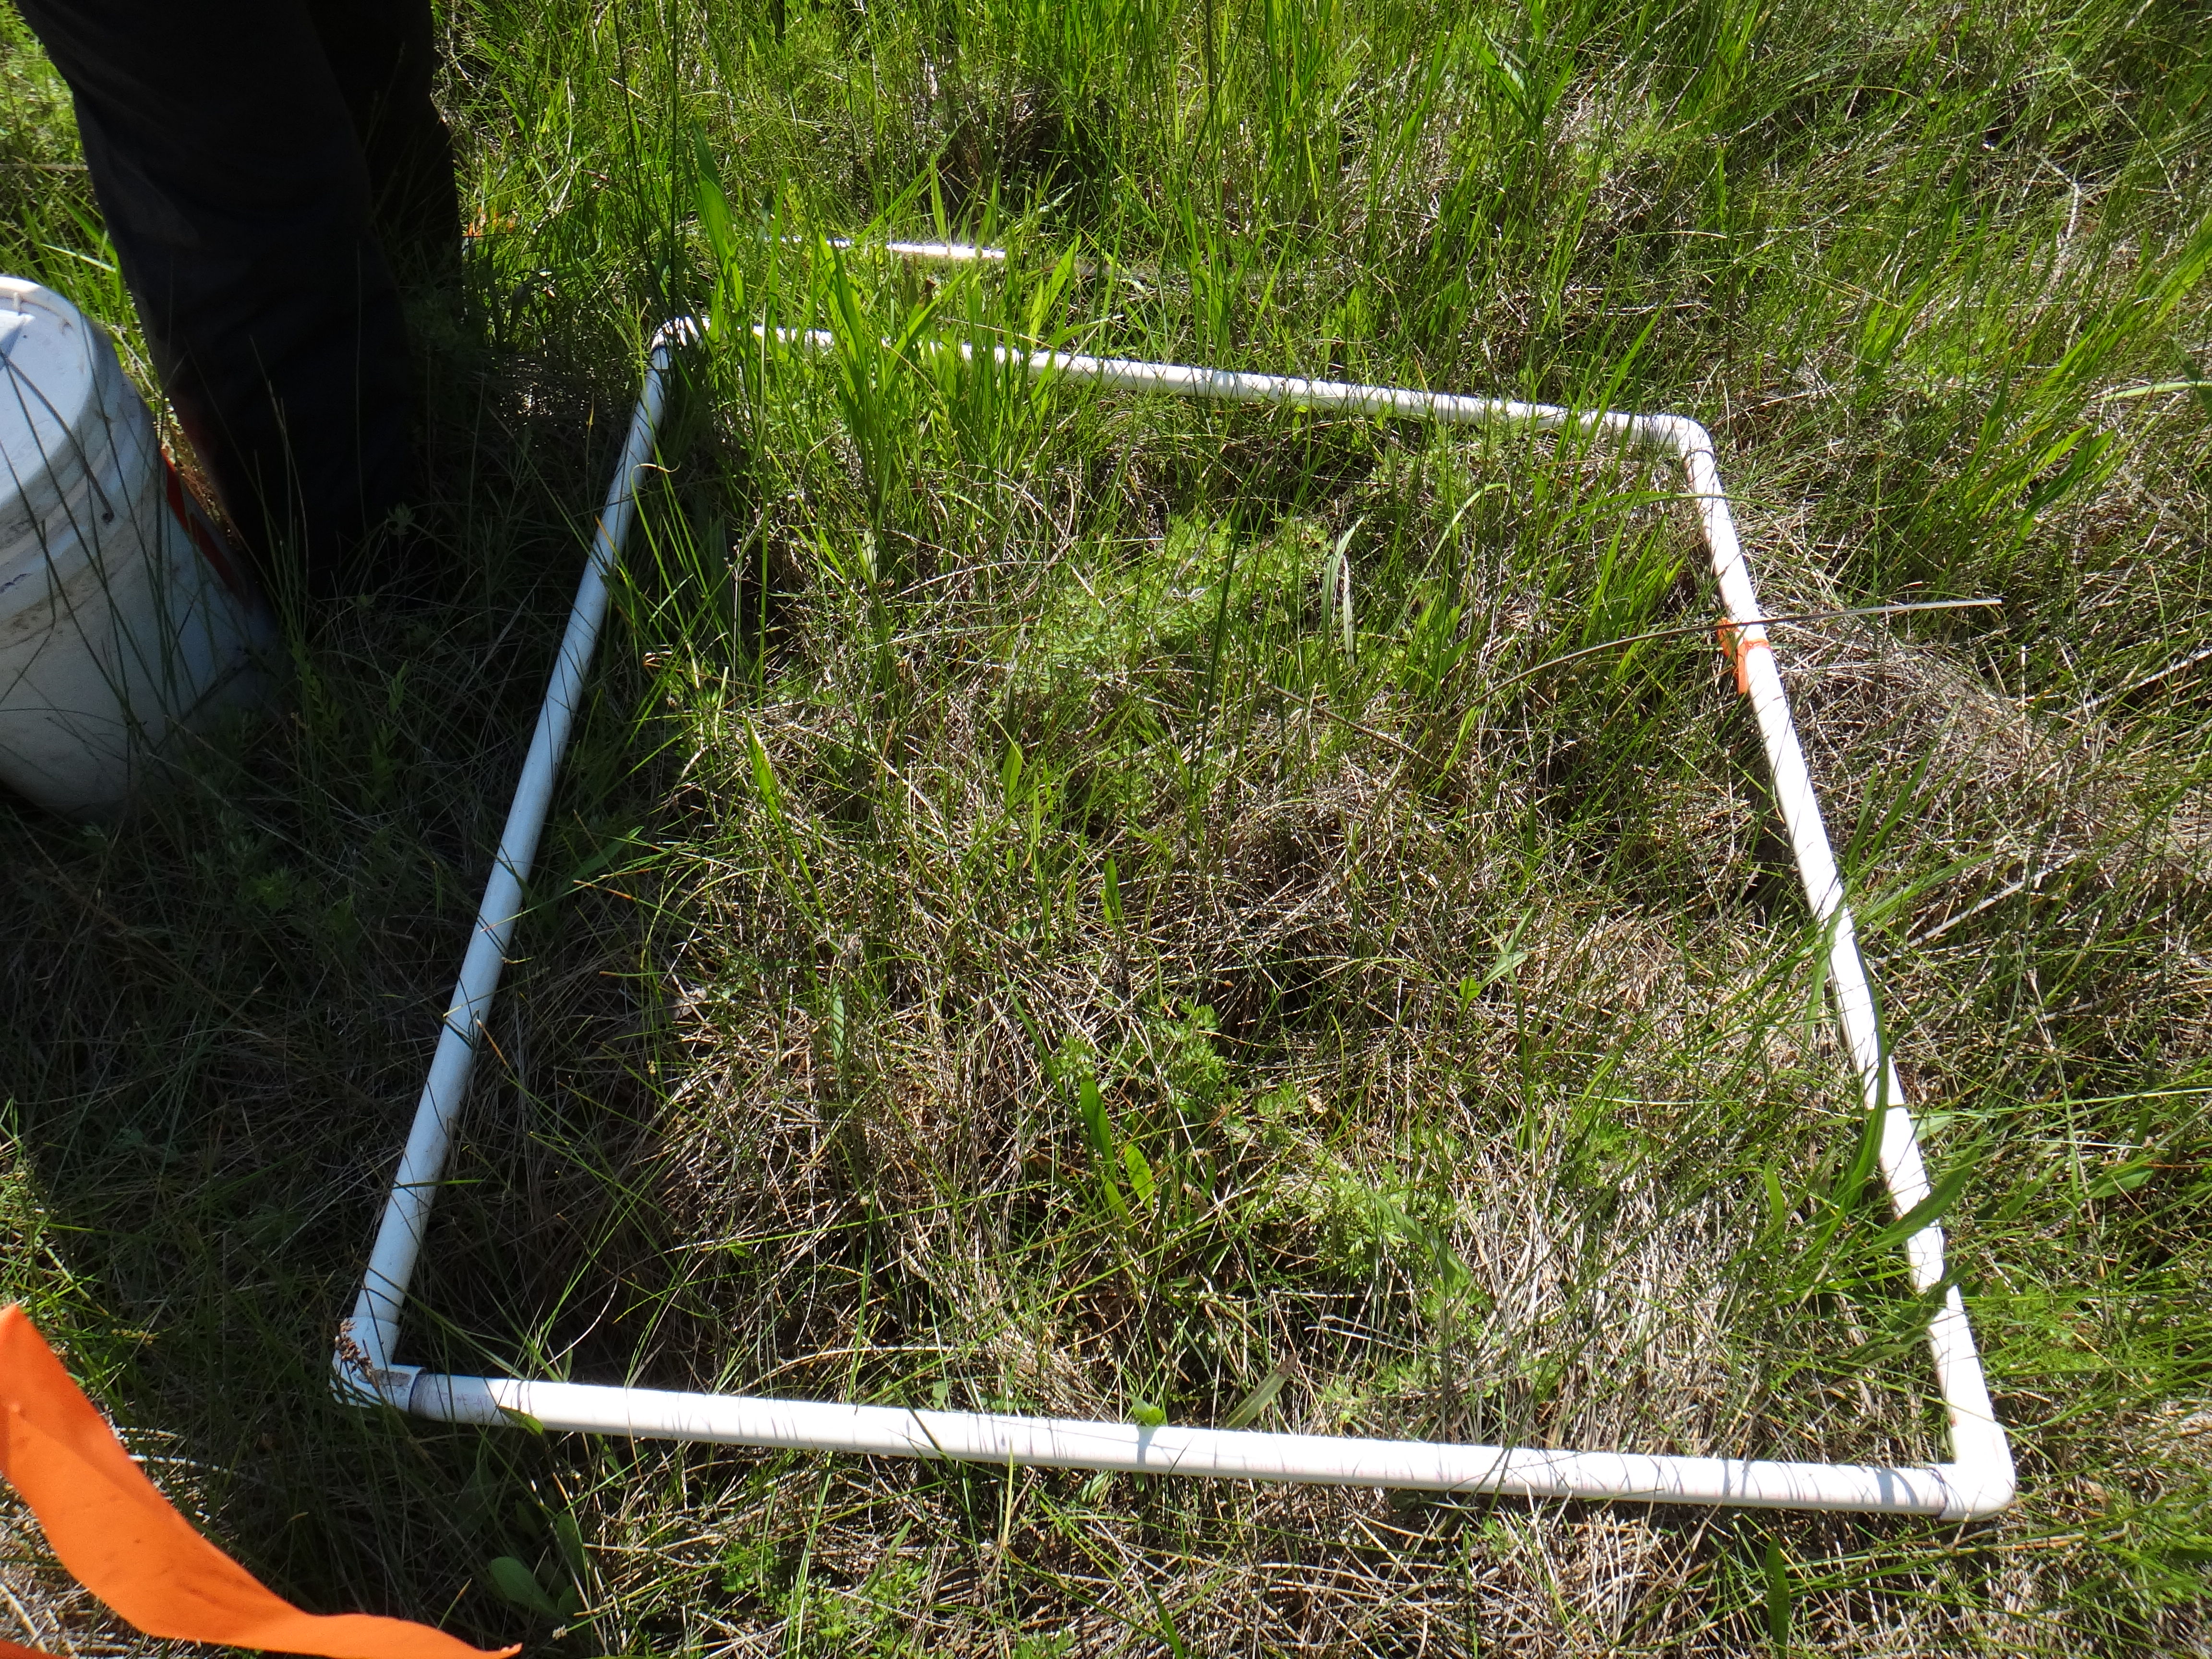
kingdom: Plantae
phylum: Tracheophyta
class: Magnoliopsida
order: Ericales
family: Balsaminaceae
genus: Impatiens
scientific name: Impatiens capensis
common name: Orange balsam
